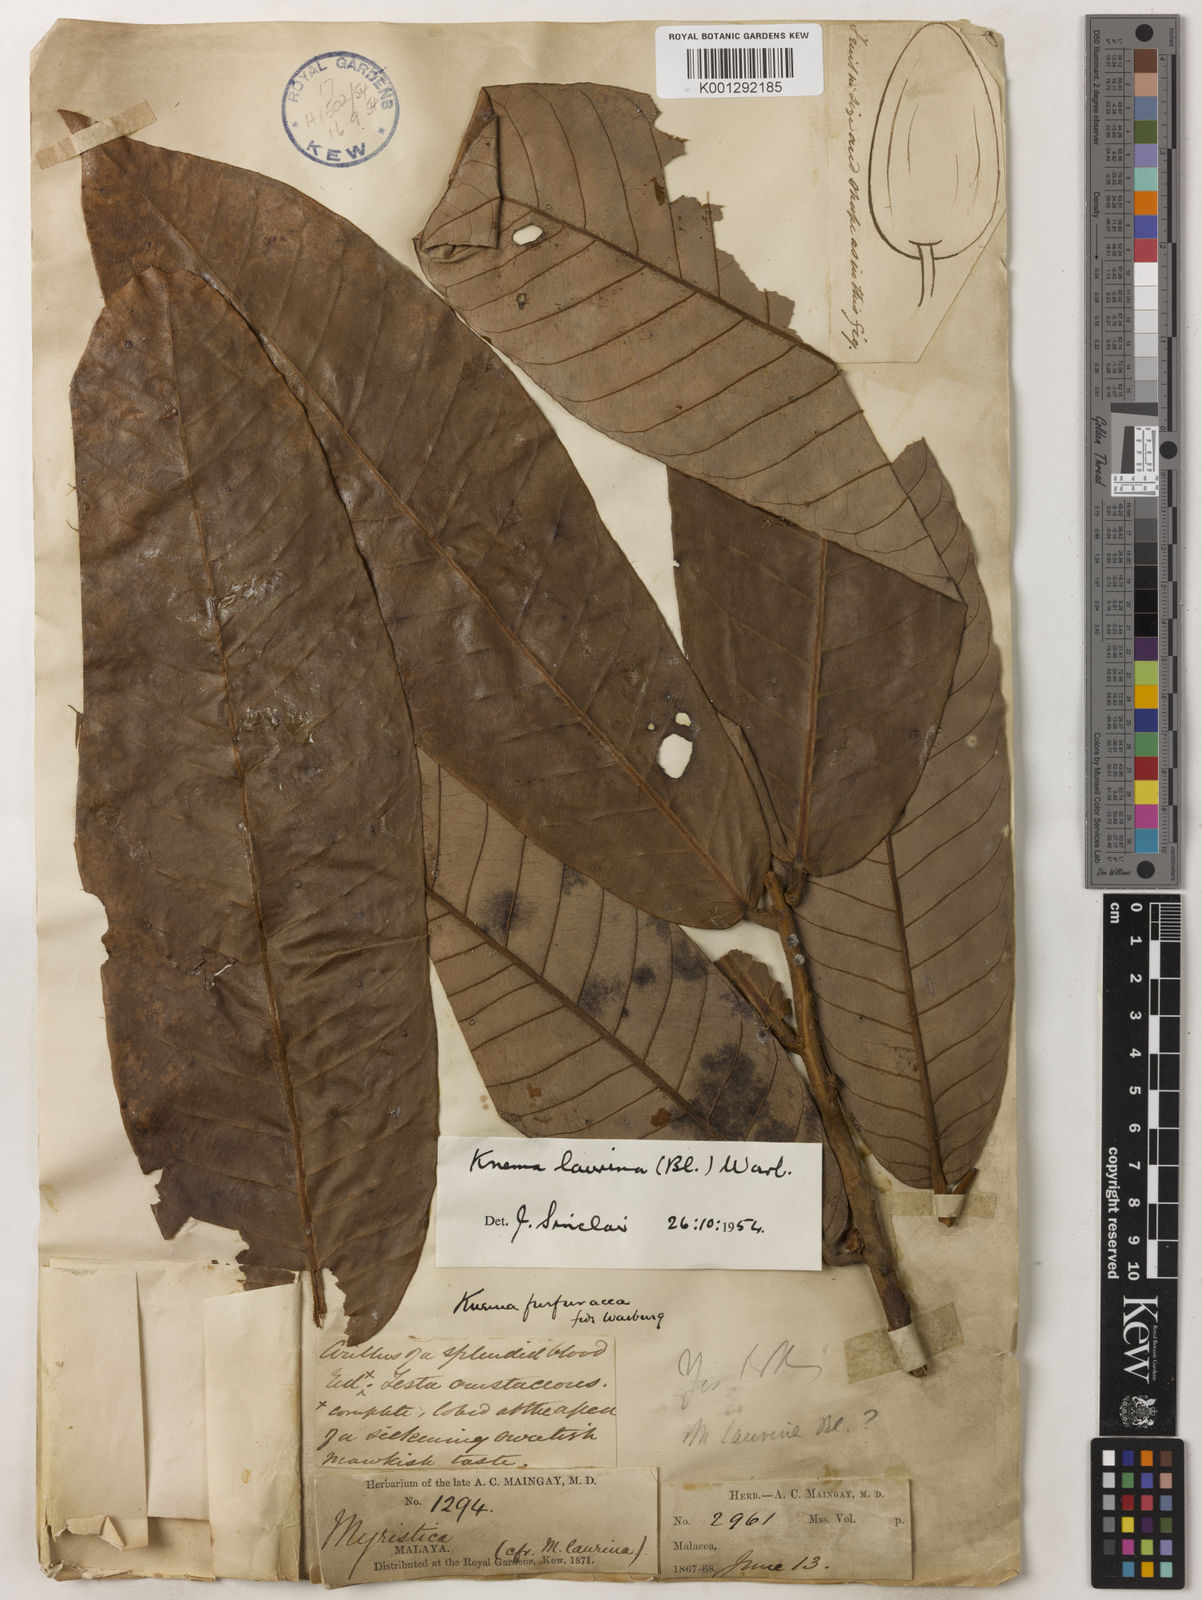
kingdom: Plantae
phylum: Tracheophyta
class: Magnoliopsida
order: Magnoliales
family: Myristicaceae
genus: Knema
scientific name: Knema laurina
